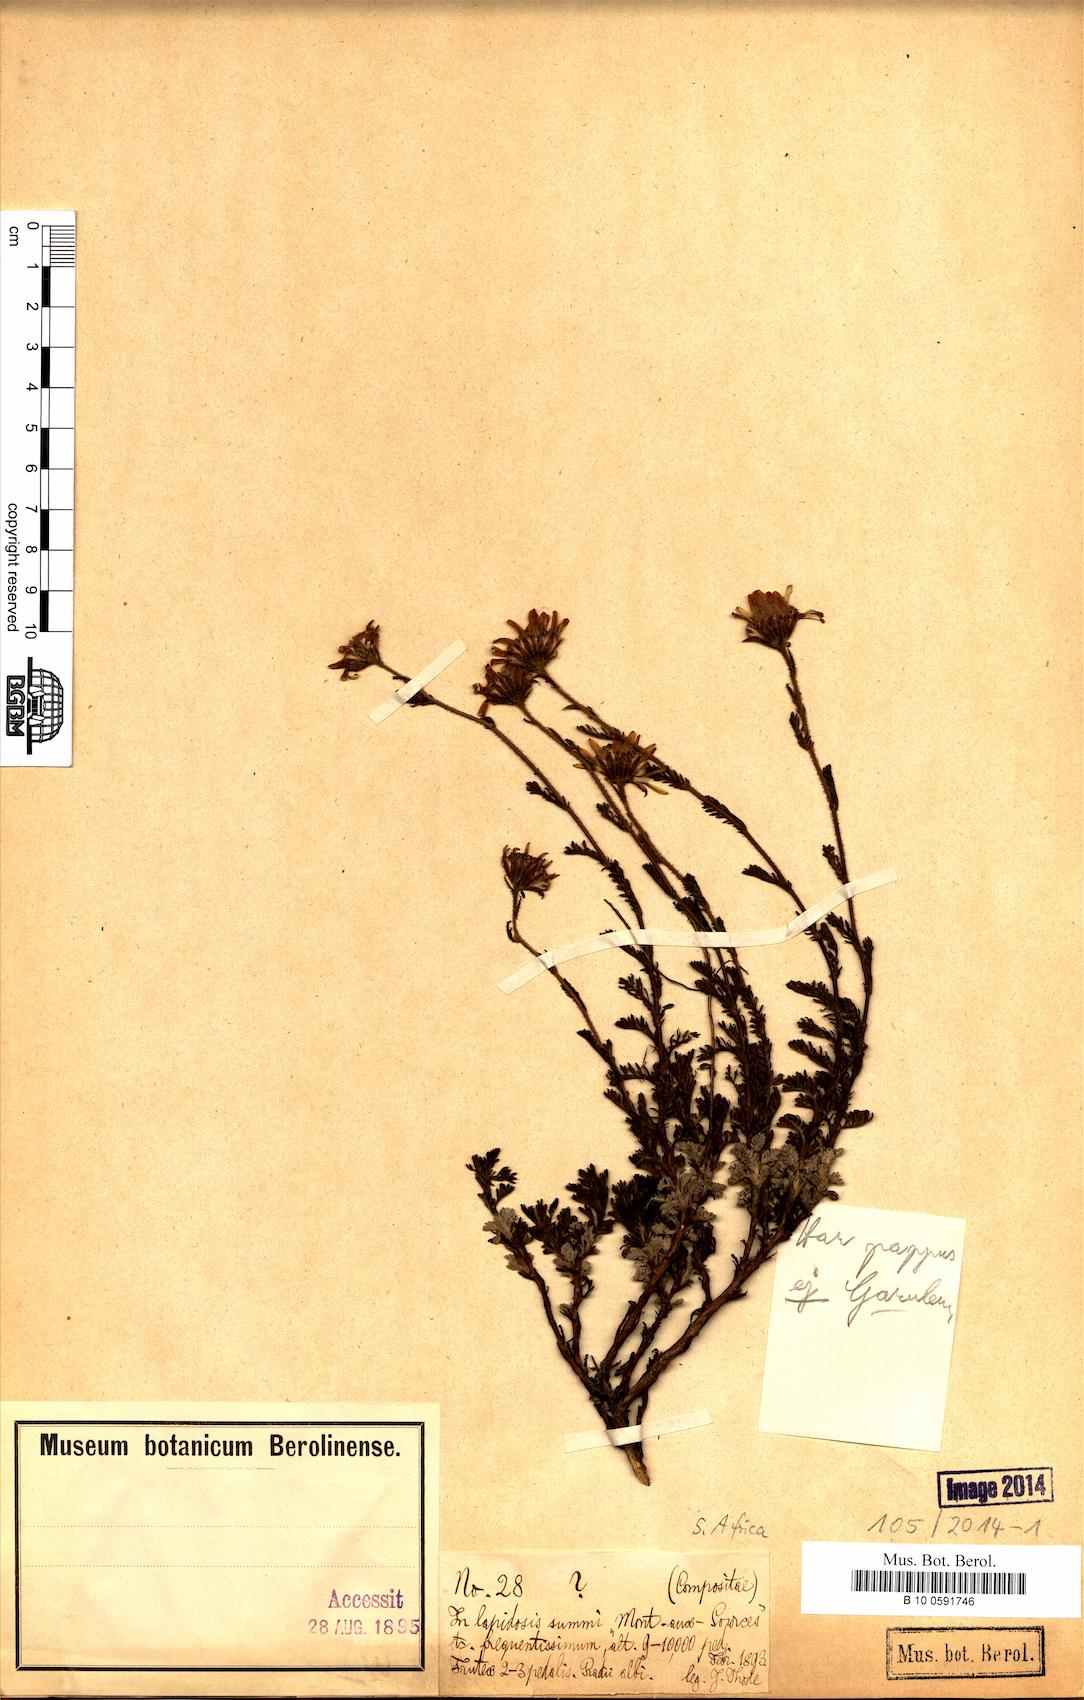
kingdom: Plantae
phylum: Tracheophyta
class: Magnoliopsida
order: Asterales
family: Asteraceae
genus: Garuleum
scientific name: Garuleum
